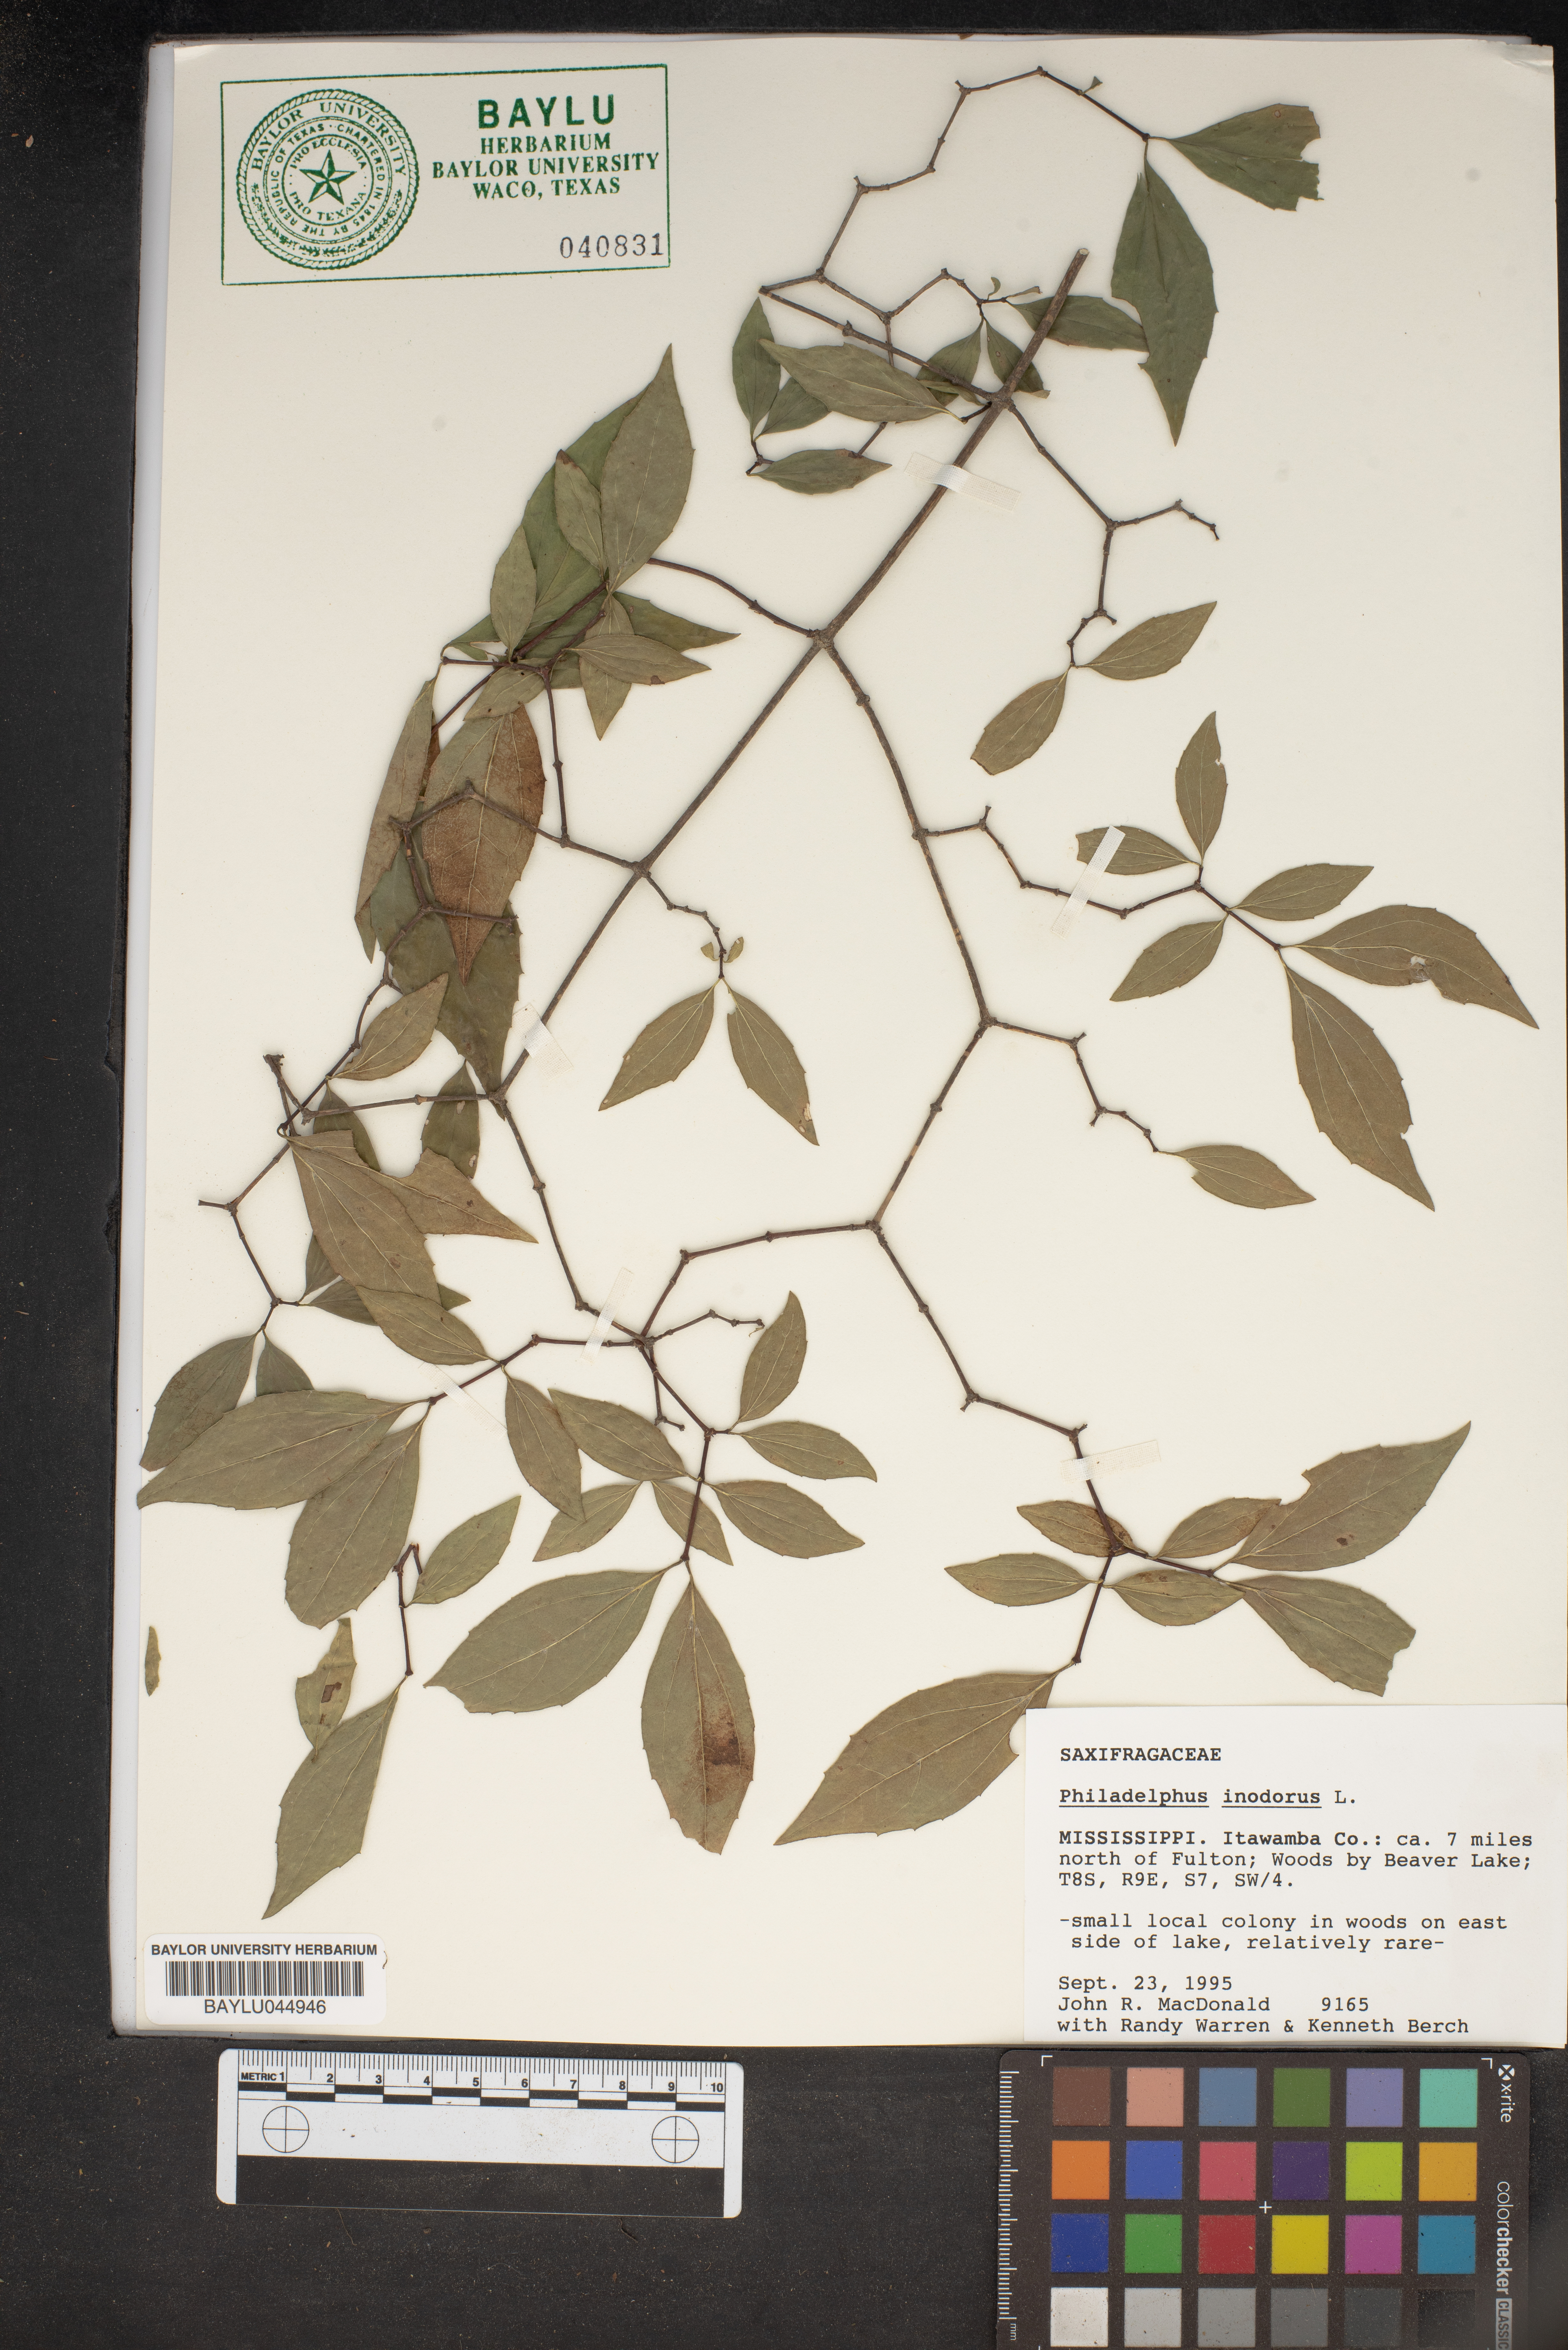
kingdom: Plantae
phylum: Tracheophyta
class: Magnoliopsida
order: Cornales
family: Hydrangeaceae
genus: Philadelphus
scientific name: Philadelphus inodorus
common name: Scentless mock-orange
